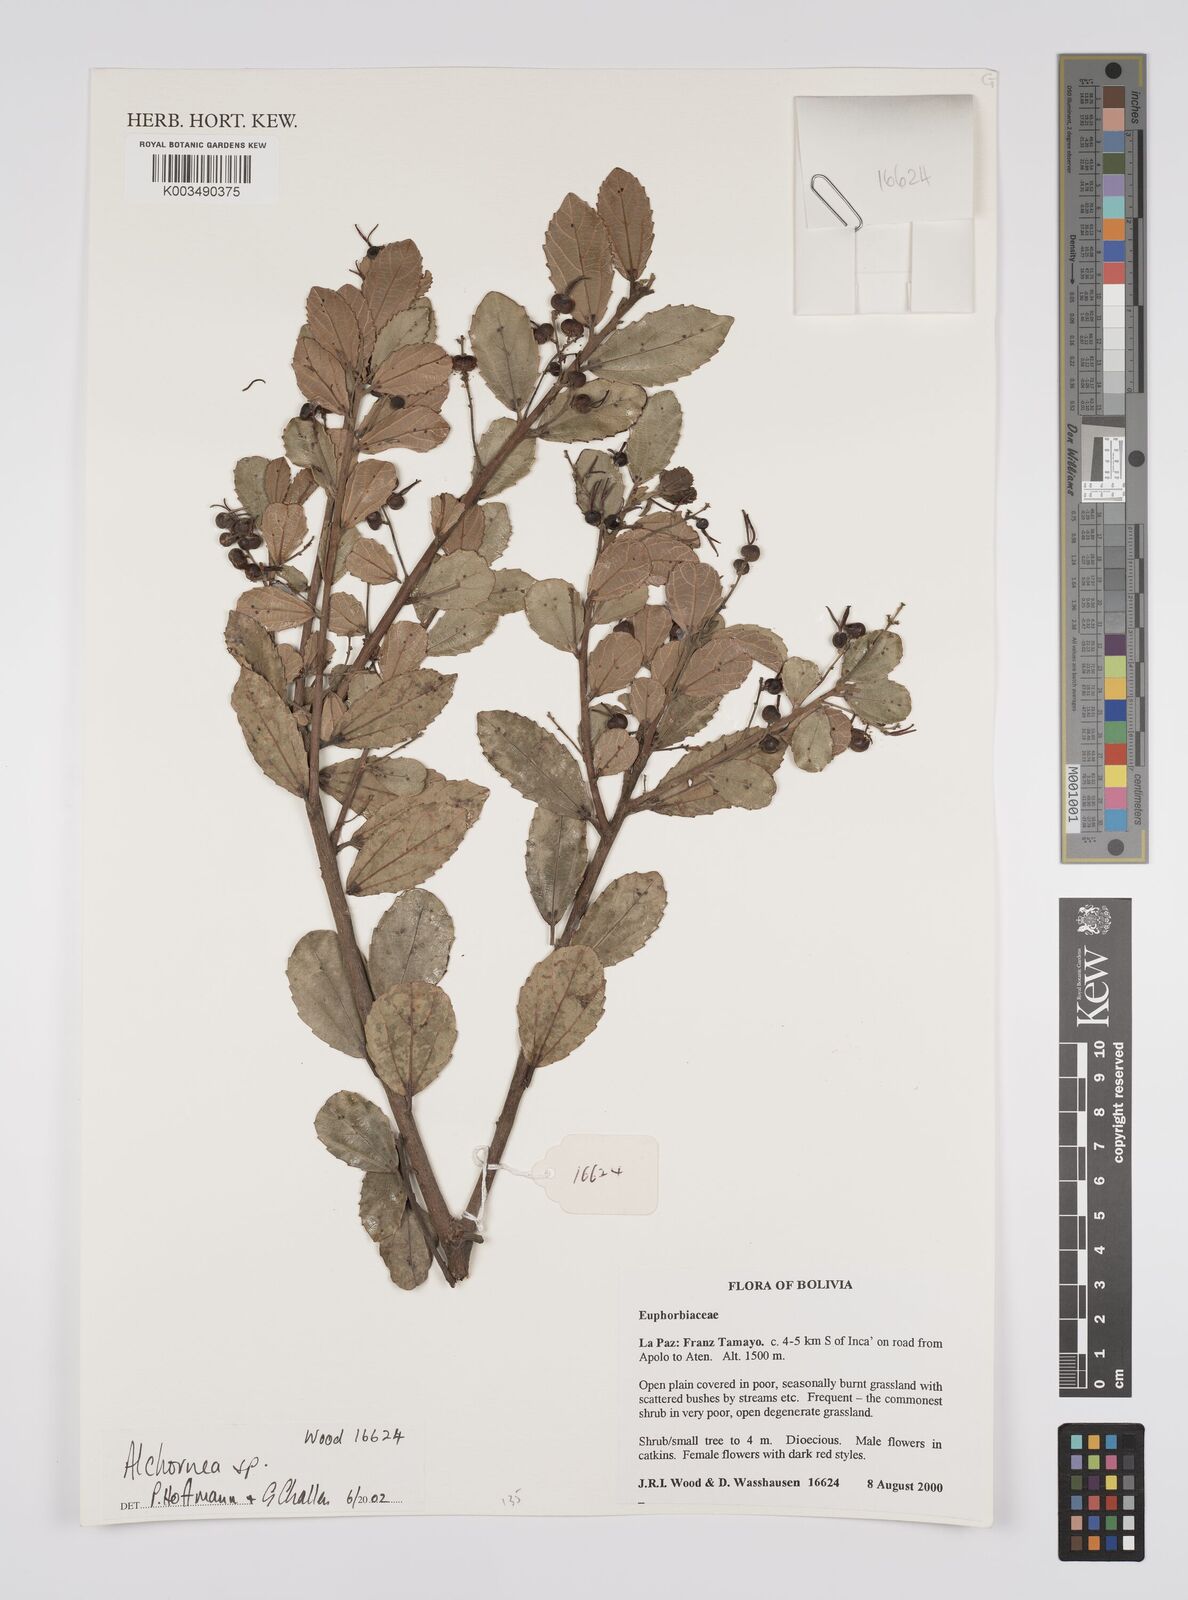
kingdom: Plantae
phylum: Tracheophyta
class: Magnoliopsida
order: Malpighiales
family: Euphorbiaceae
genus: Alchornea
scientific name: Alchornea
